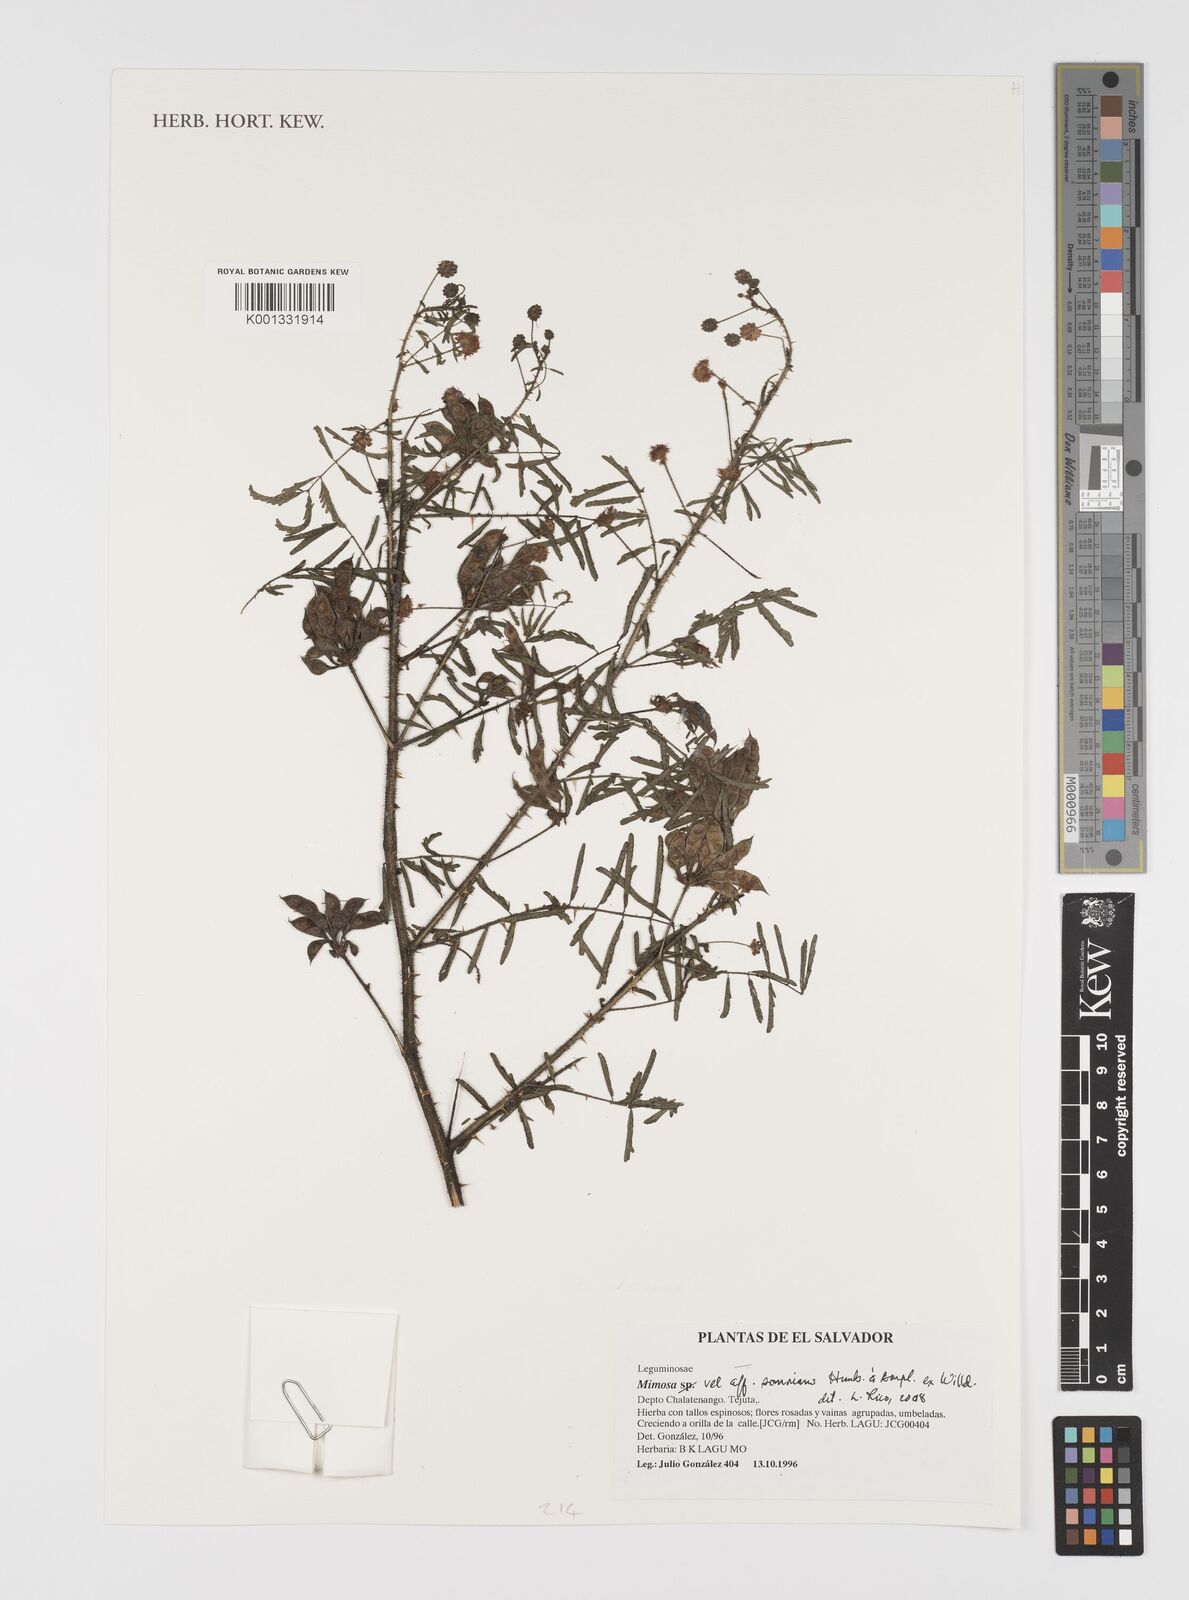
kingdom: Plantae
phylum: Tracheophyta
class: Magnoliopsida
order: Fabales
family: Fabaceae
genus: Mimosa
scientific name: Mimosa somnians
